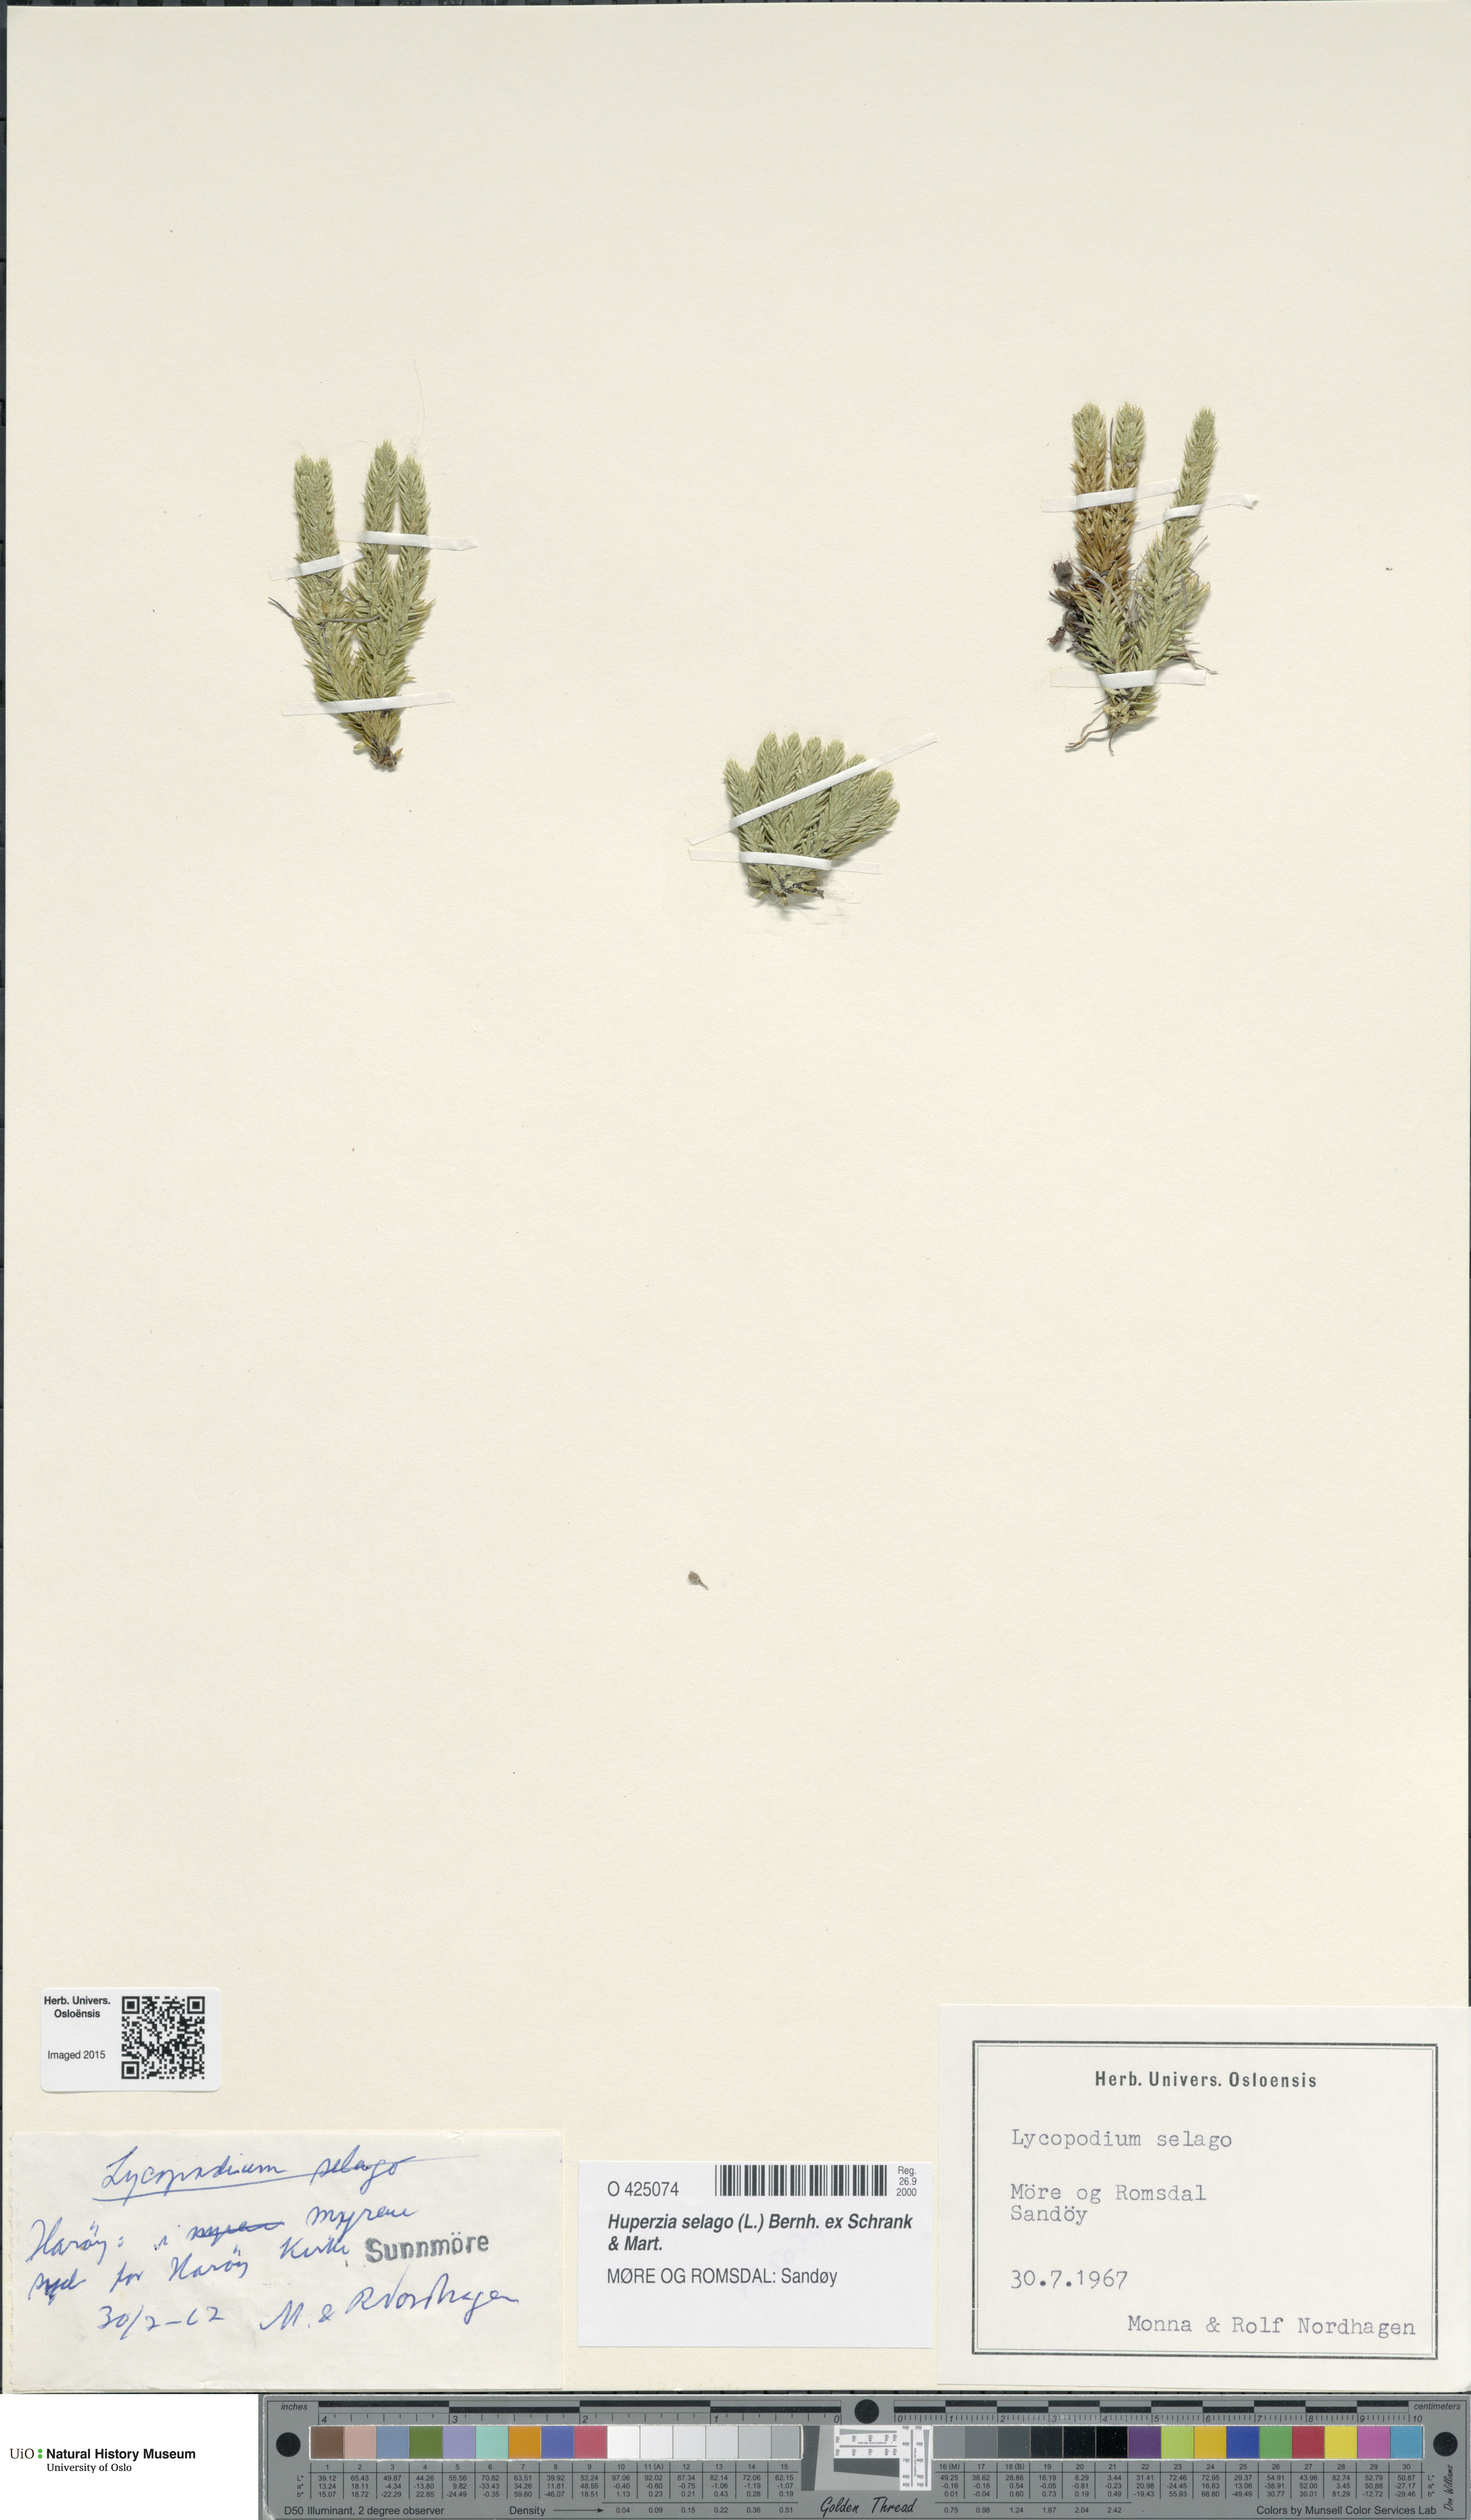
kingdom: Plantae
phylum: Tracheophyta
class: Lycopodiopsida
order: Lycopodiales
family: Lycopodiaceae
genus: Huperzia
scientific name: Huperzia selago
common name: Northern firmoss
